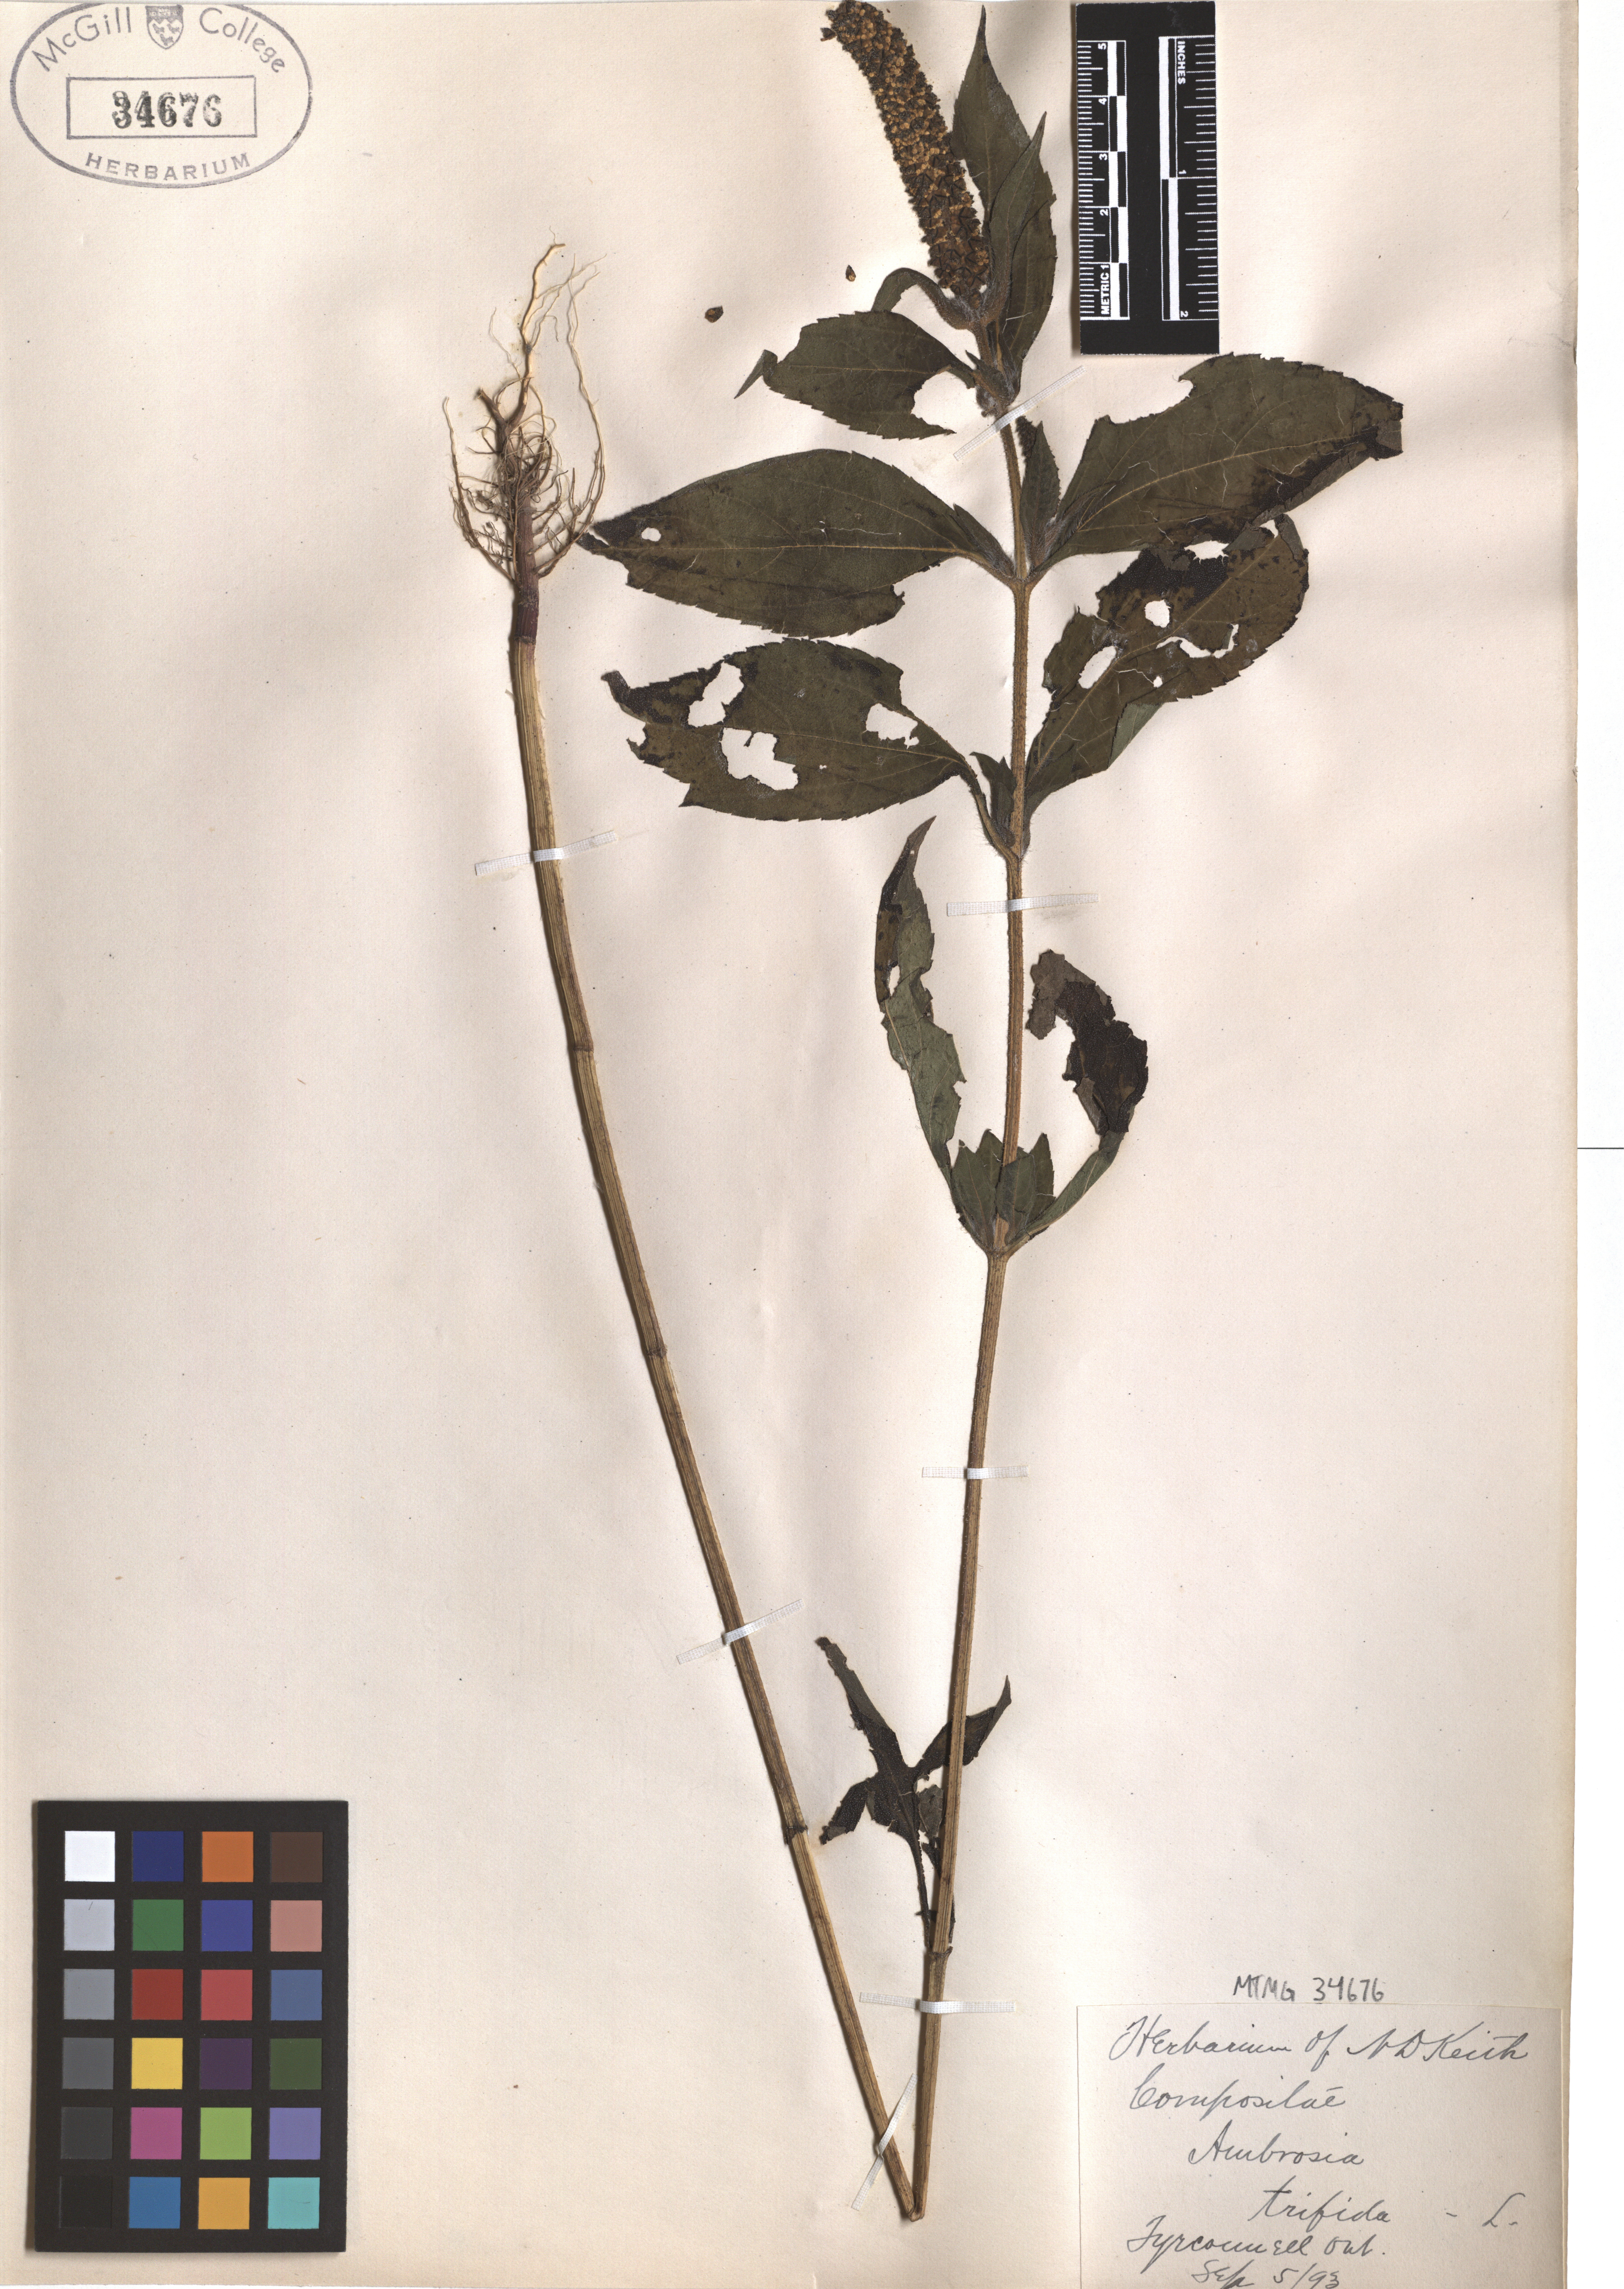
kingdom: Plantae
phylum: Tracheophyta
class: Magnoliopsida
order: Asterales
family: Asteraceae
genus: Ambrosia
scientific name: Ambrosia trifida
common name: Giant ragweed
